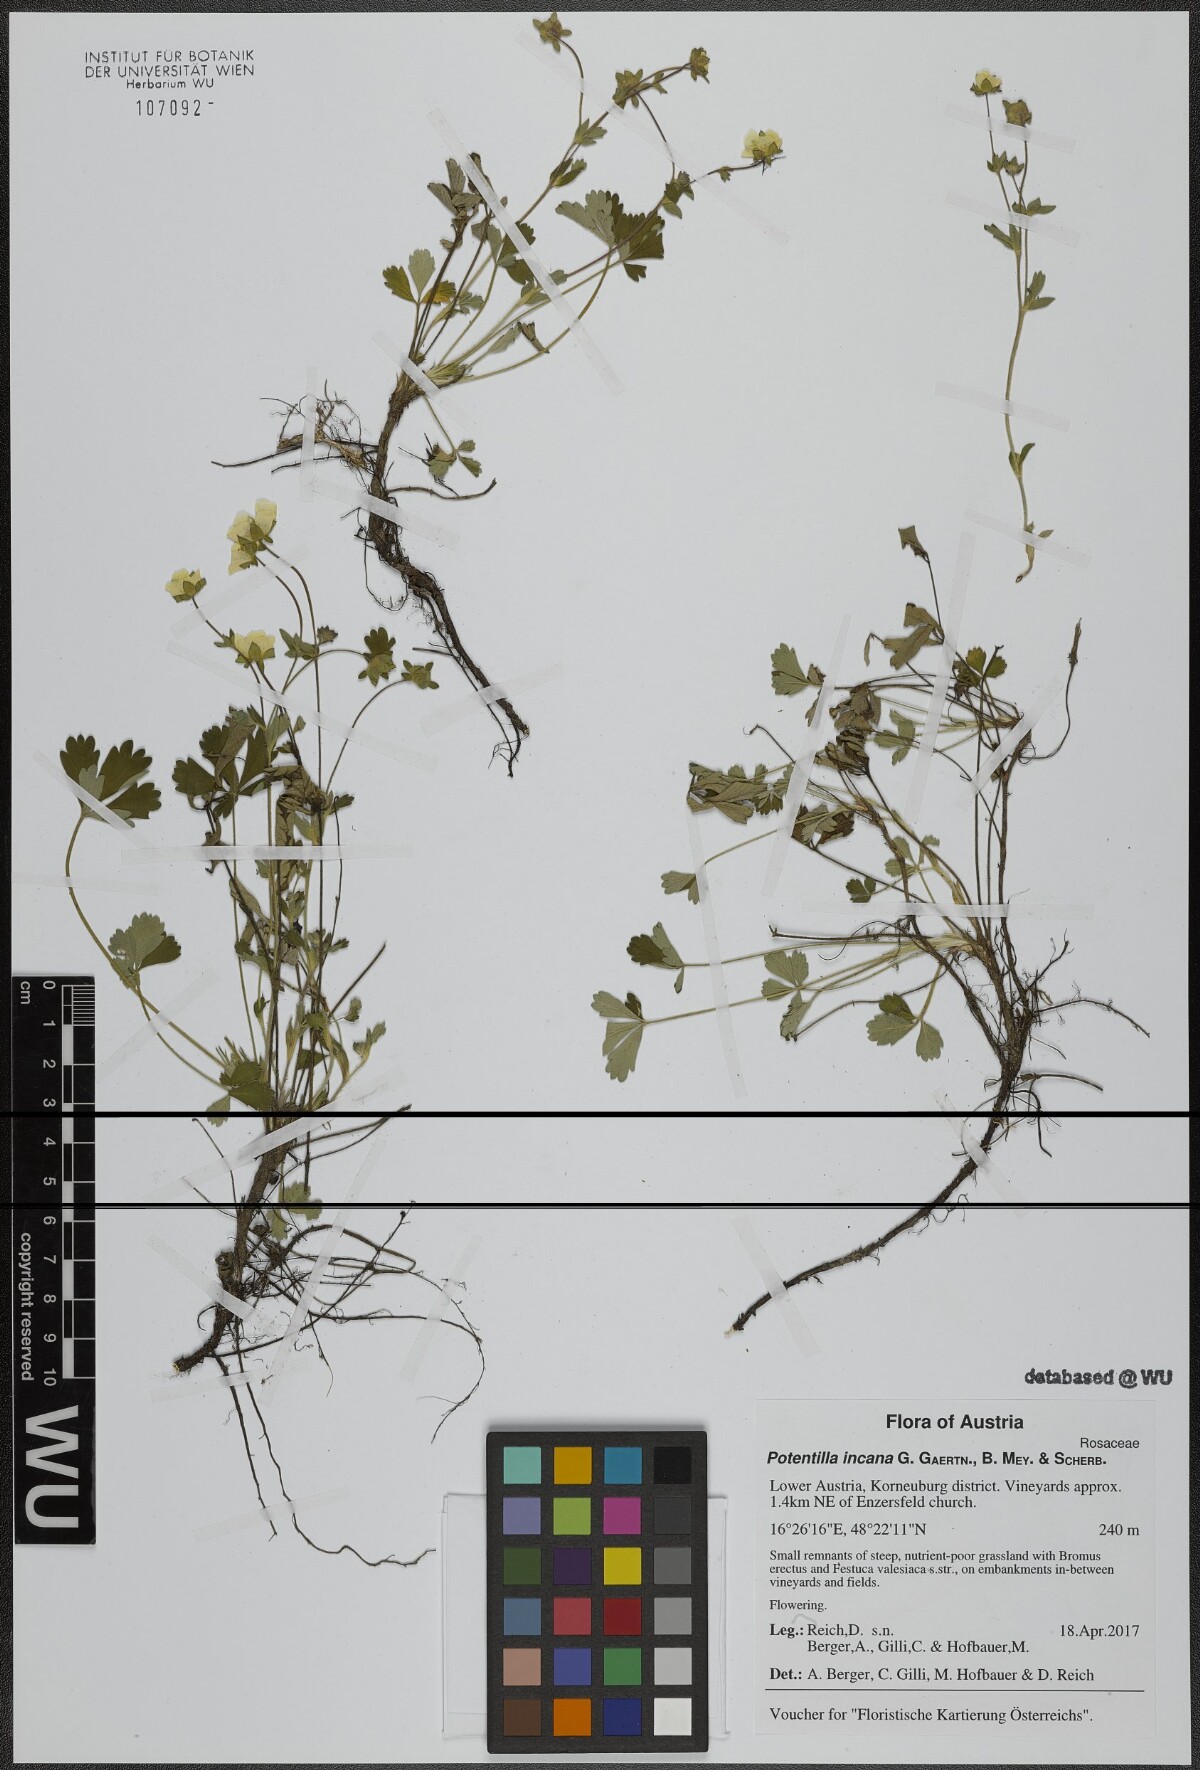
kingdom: Plantae
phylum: Tracheophyta
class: Magnoliopsida
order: Rosales
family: Rosaceae
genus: Potentilla
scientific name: Potentilla cinerea
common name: Ashy cinquefoil
